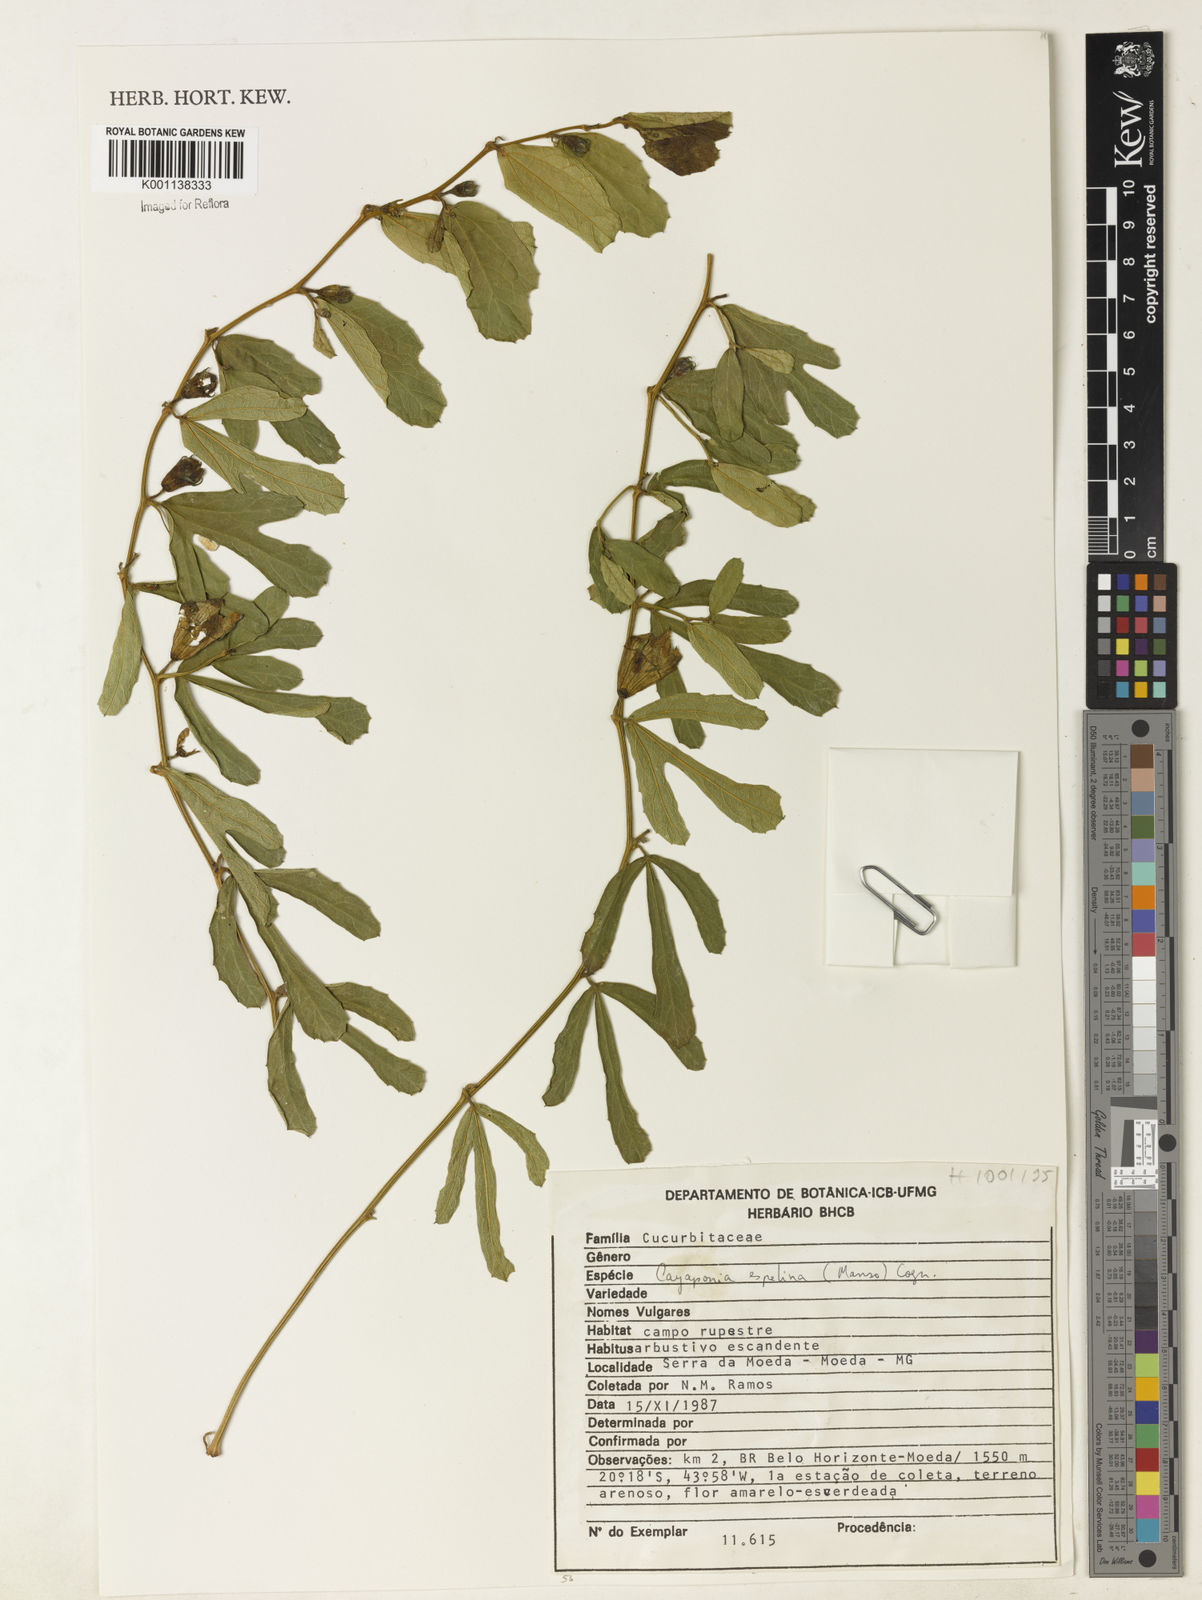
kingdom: Plantae
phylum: Tracheophyta
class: Magnoliopsida
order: Cucurbitales
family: Cucurbitaceae
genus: Cayaponia
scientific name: Cayaponia espelina
